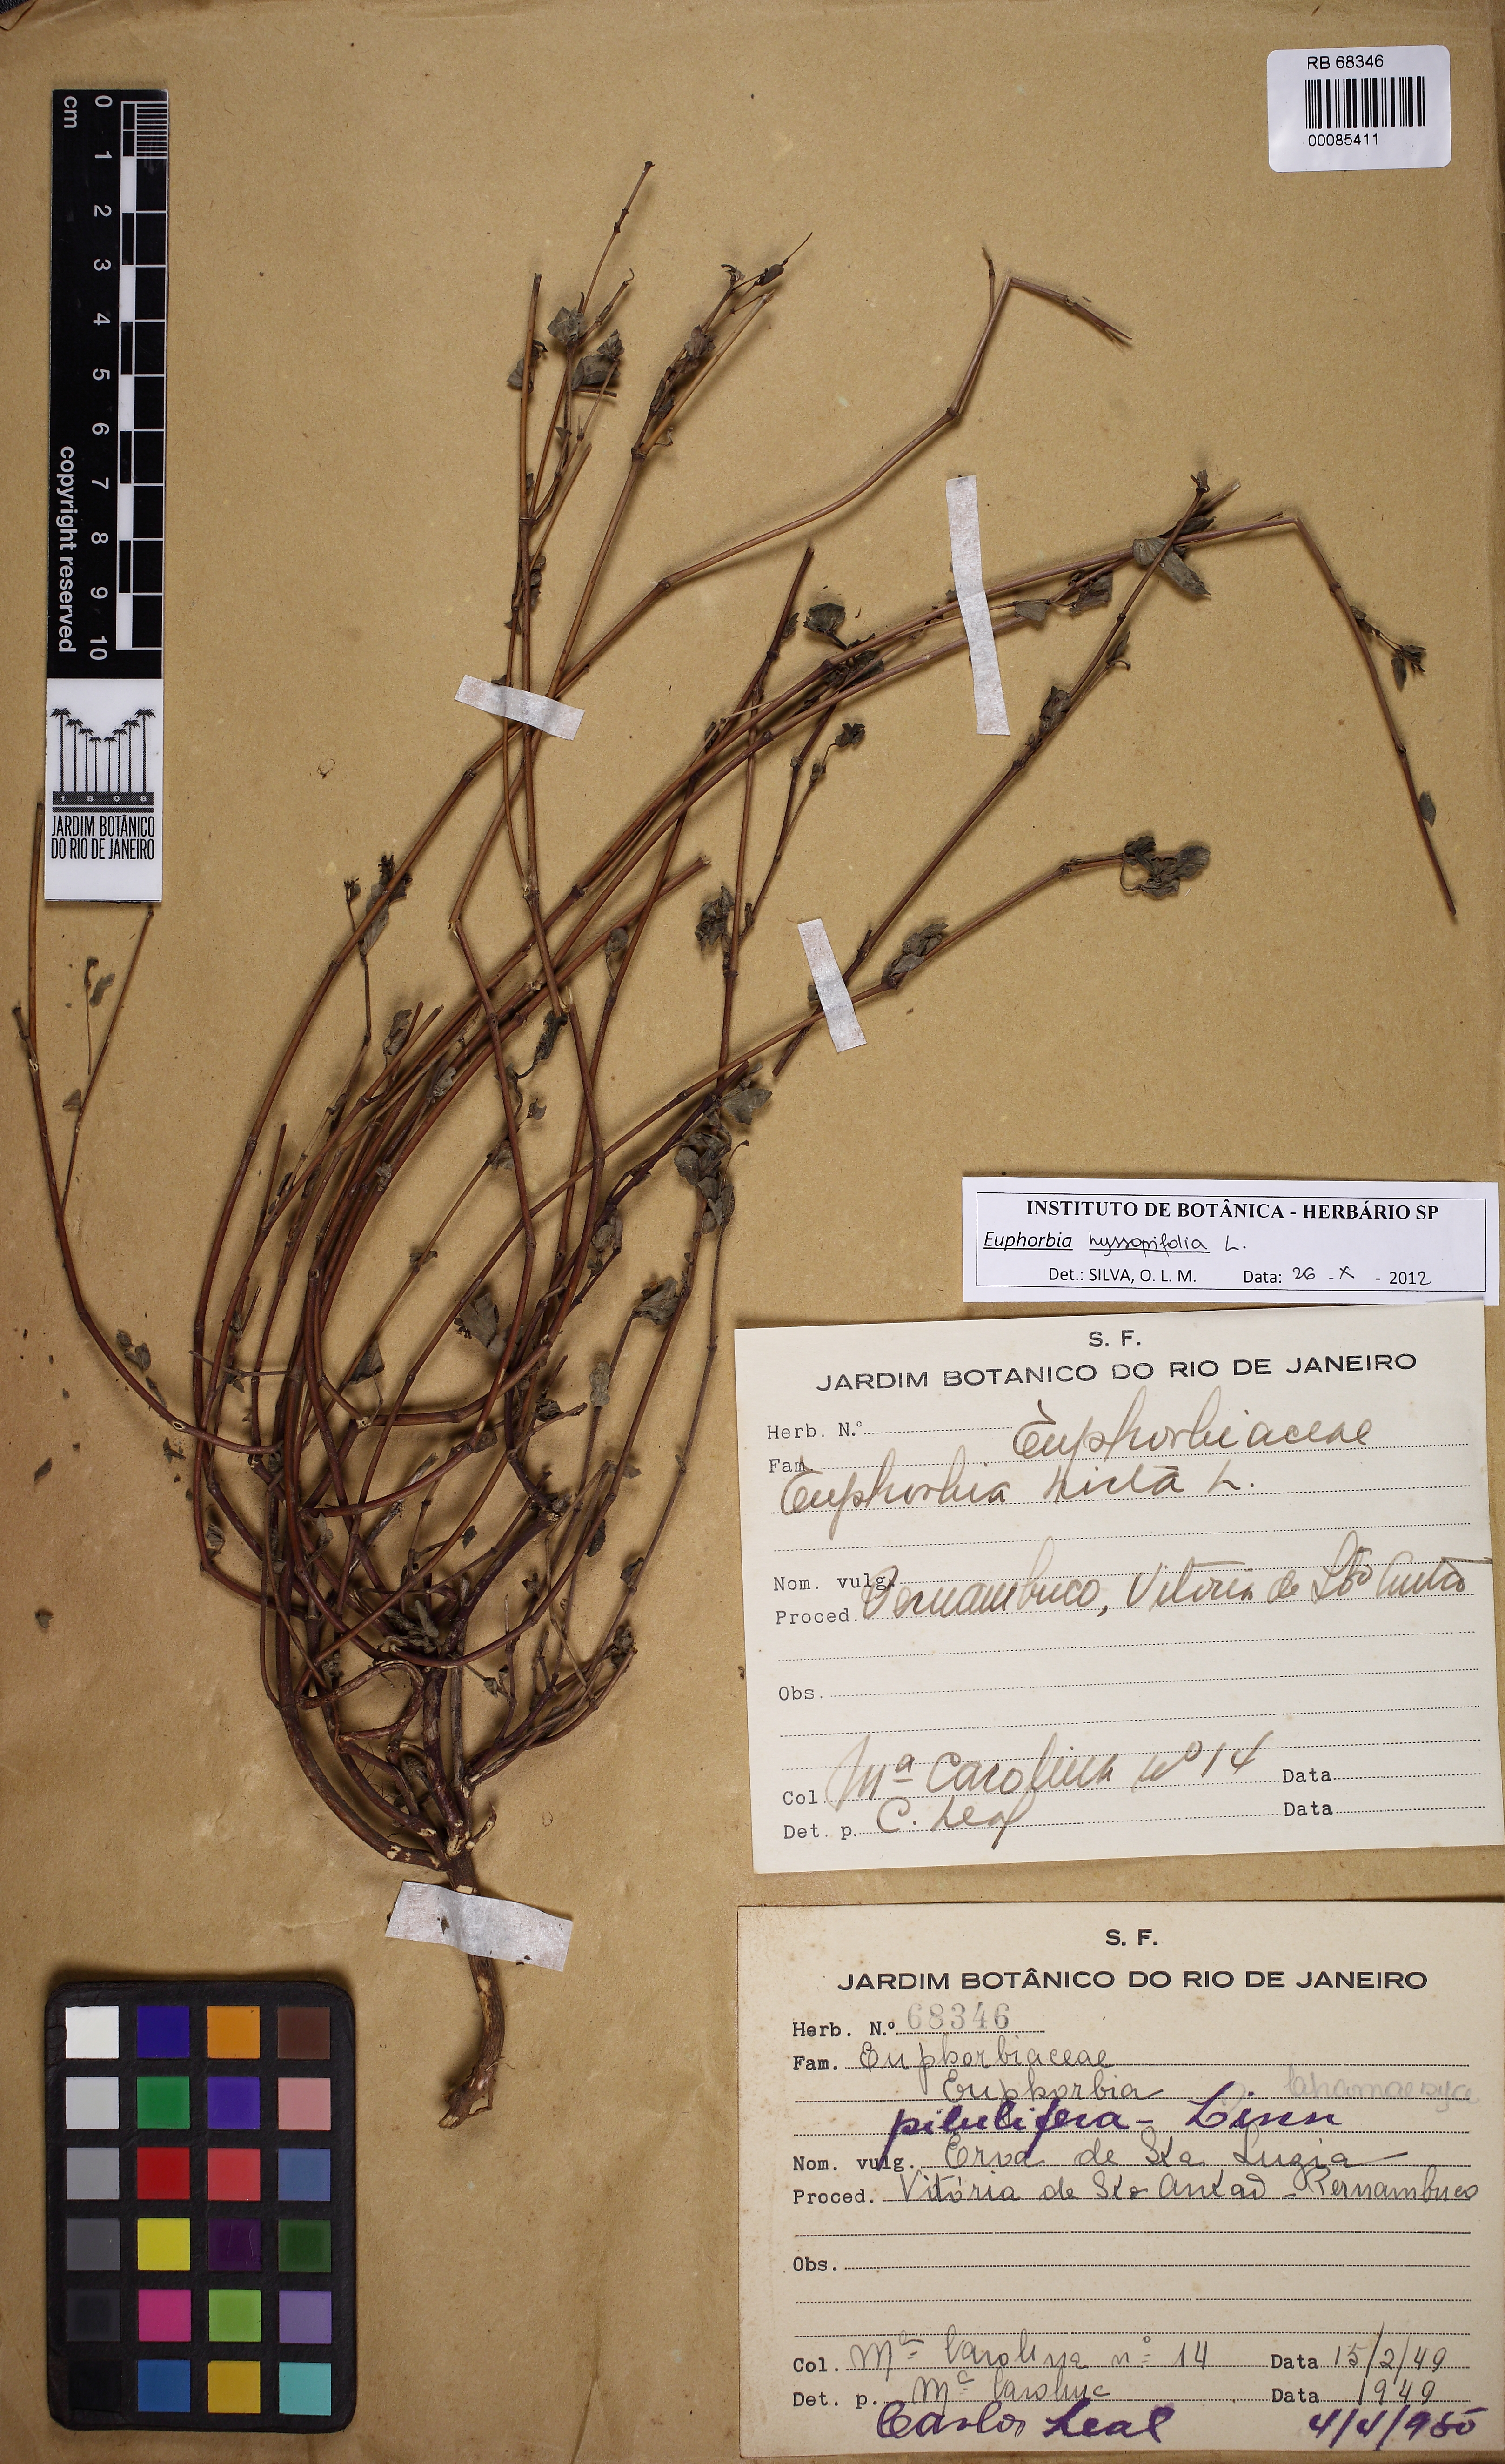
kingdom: Plantae
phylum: Tracheophyta
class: Magnoliopsida
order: Malpighiales
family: Euphorbiaceae
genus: Euphorbia
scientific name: Euphorbia hyssopifolia
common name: Hyssopleaf sandmat
